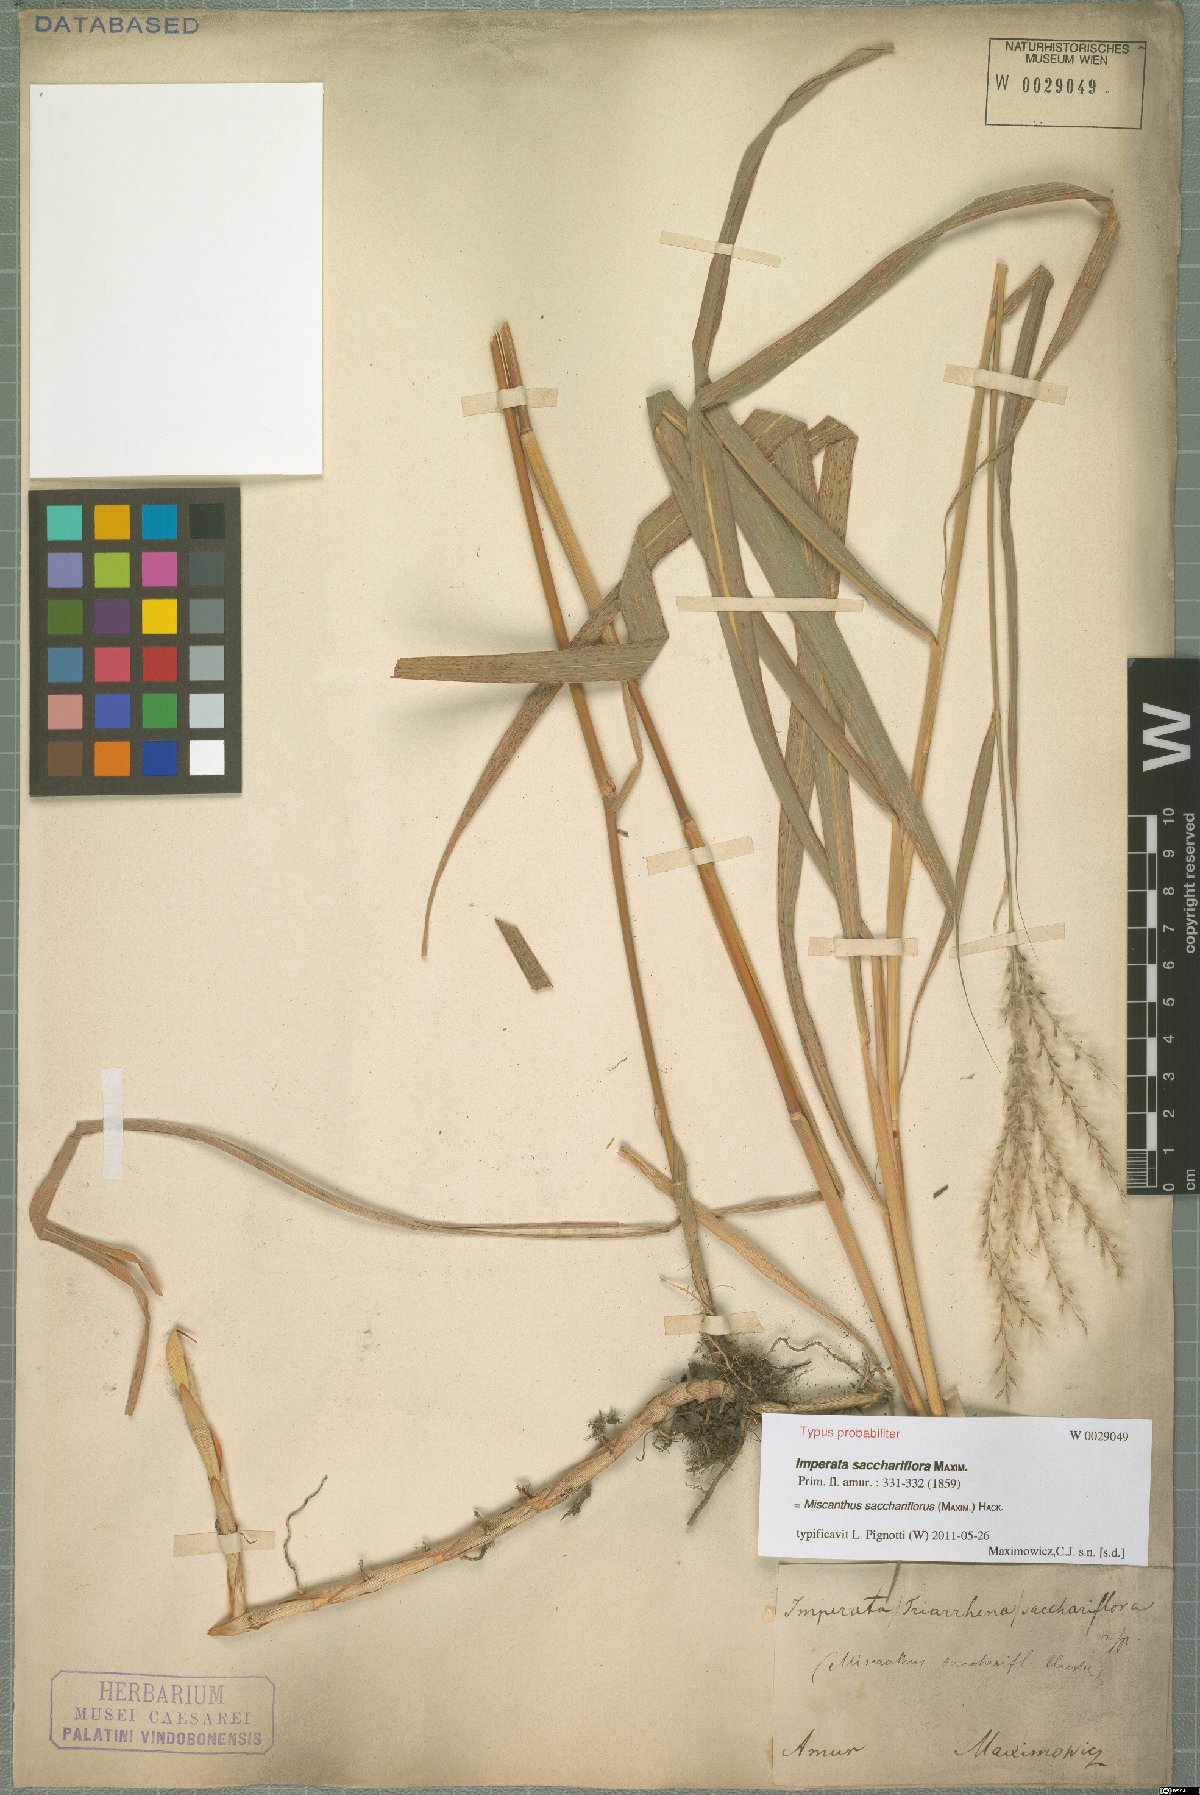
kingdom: Plantae
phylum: Tracheophyta
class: Liliopsida
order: Poales
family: Poaceae
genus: Miscanthus
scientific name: Miscanthus sacchariflorus
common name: Amur silver grass
